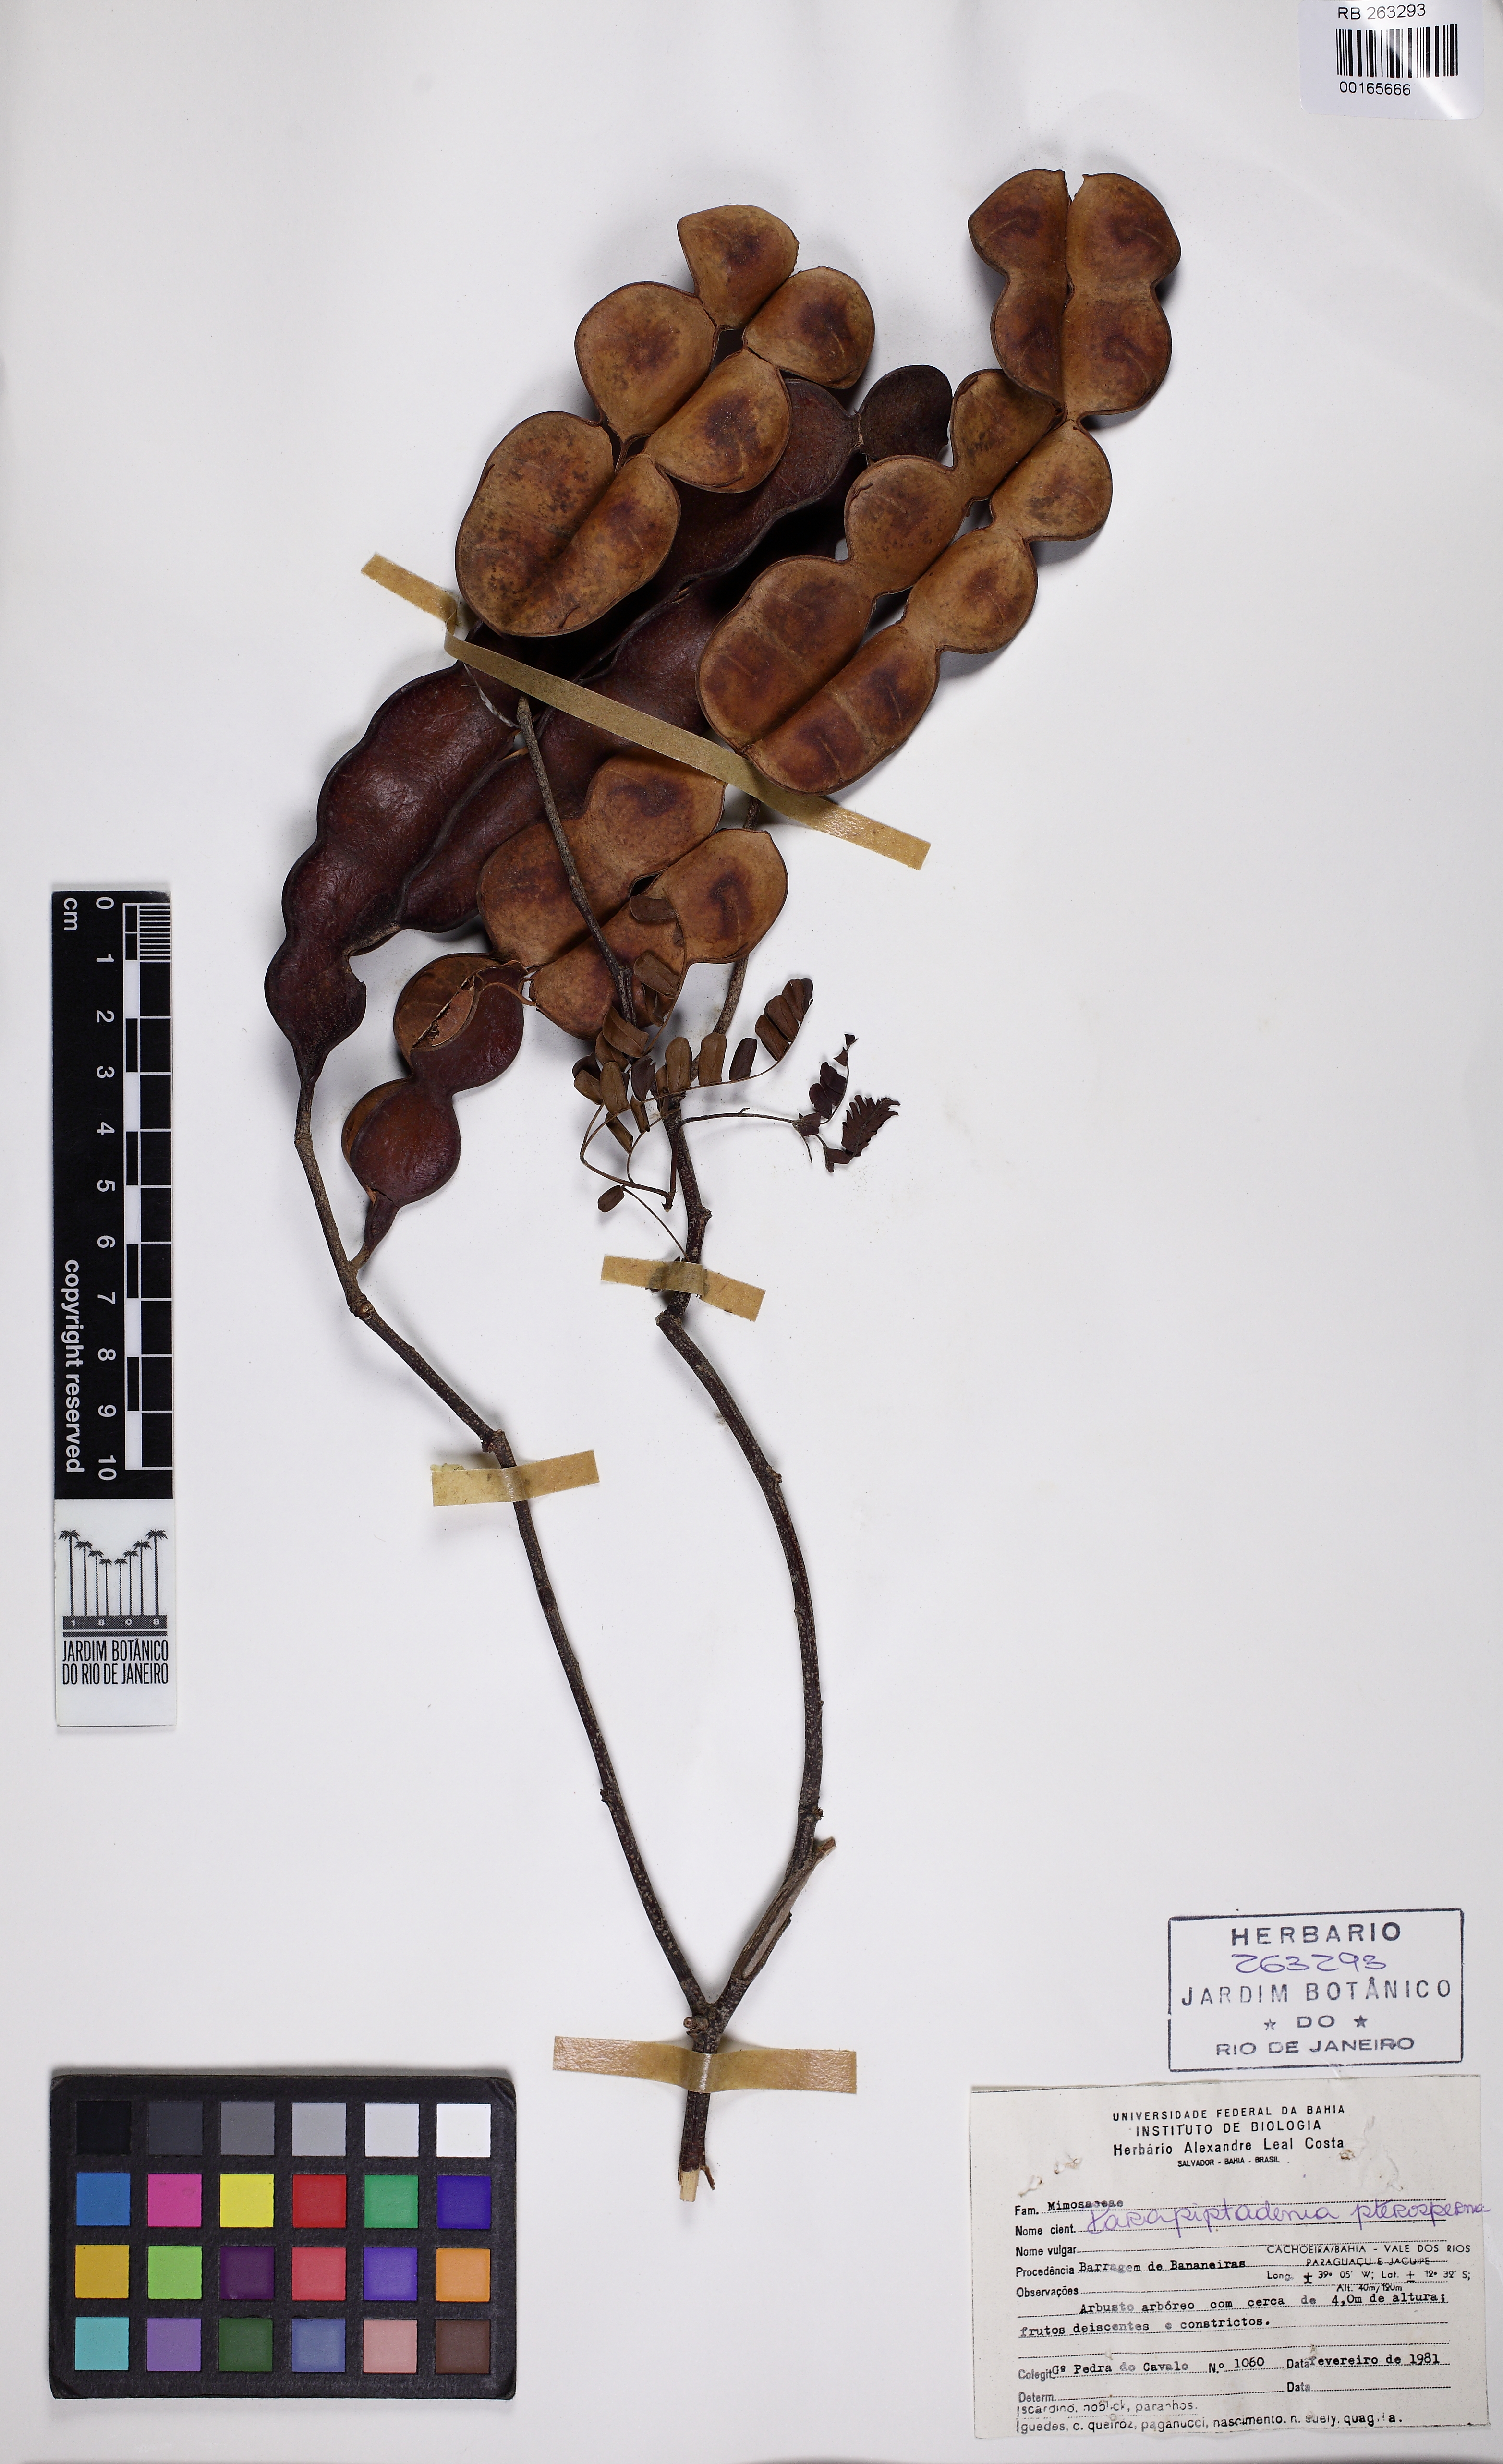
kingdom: Plantae
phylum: Tracheophyta
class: Magnoliopsida
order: Fabales
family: Fabaceae
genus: Parapiptadenia
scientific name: Parapiptadenia pterosperma
